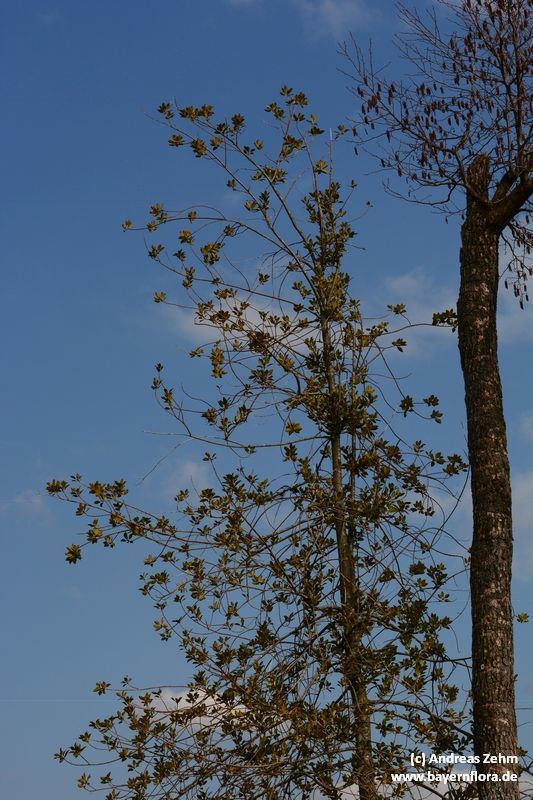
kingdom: Plantae
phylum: Tracheophyta
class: Magnoliopsida
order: Aquifoliales
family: Aquifoliaceae
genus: Ilex
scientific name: Ilex aquifolium
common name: English holly
